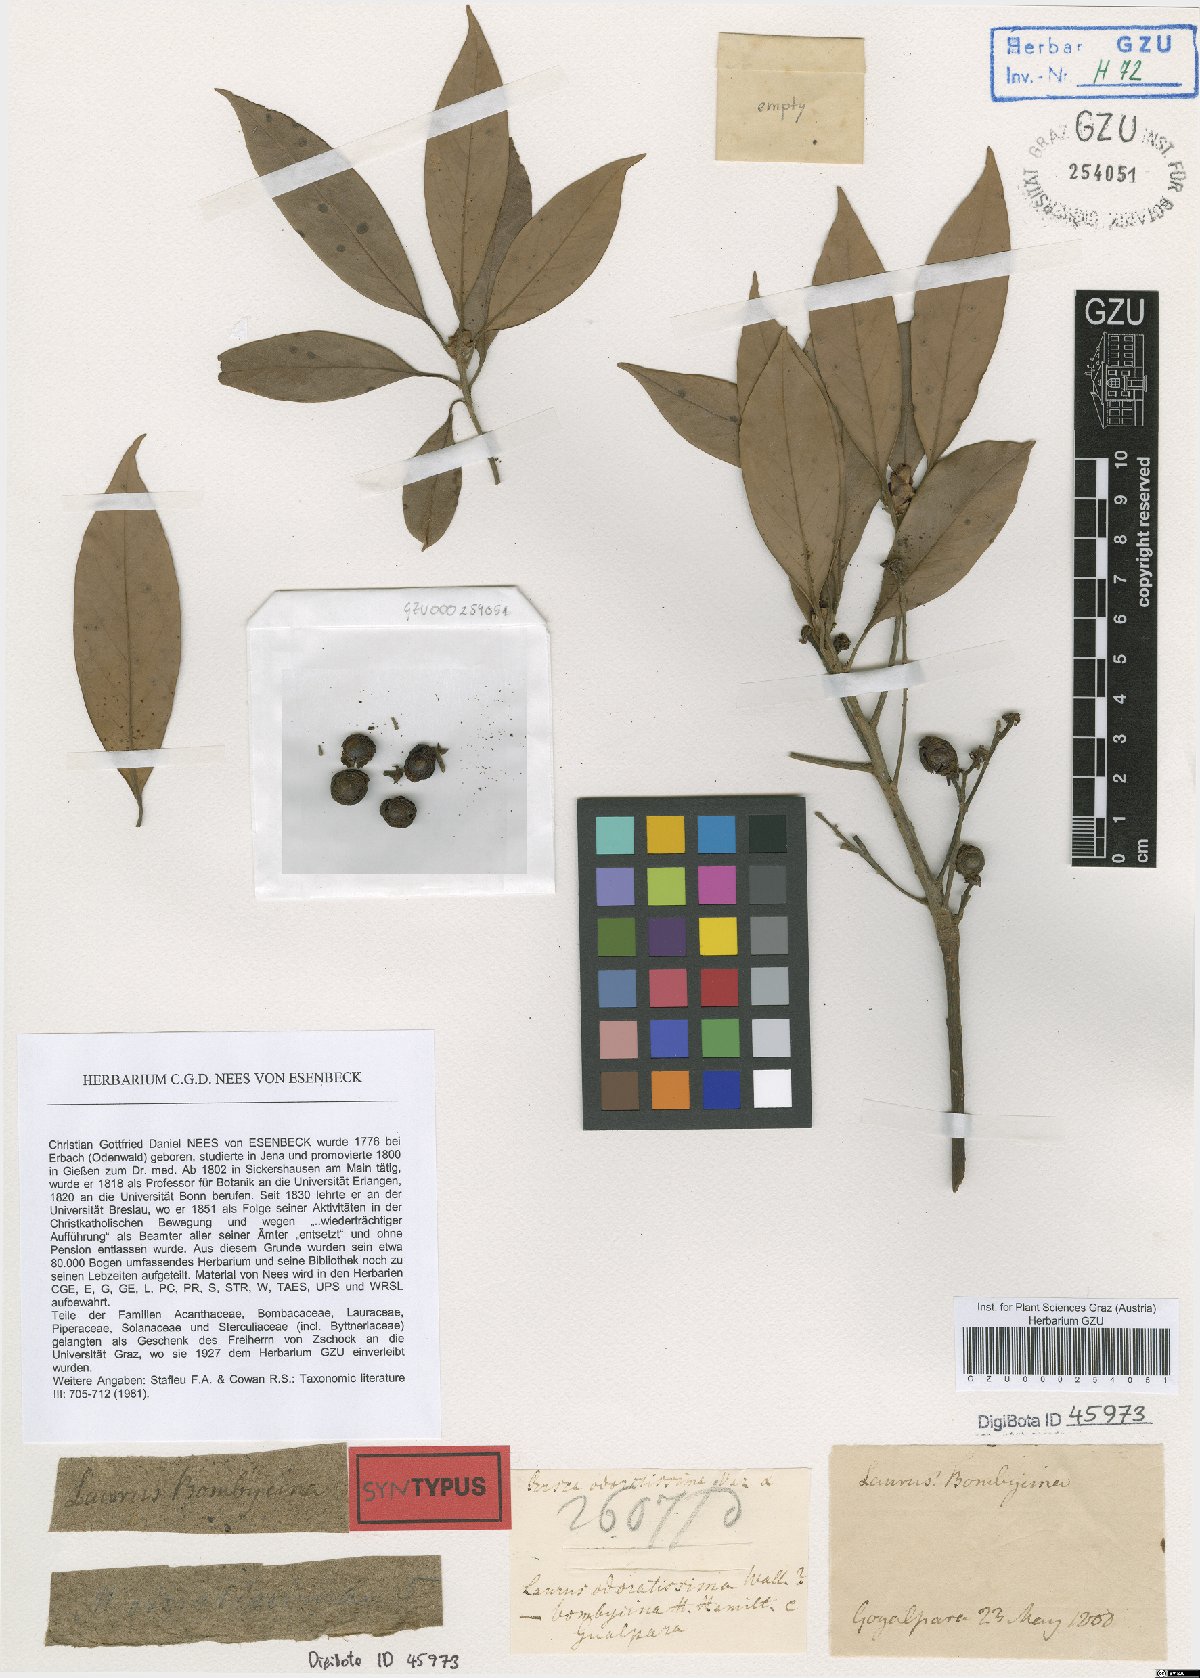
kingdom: Plantae
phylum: Tracheophyta
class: Magnoliopsida
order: Laurales
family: Lauraceae
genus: Machilus
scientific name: Machilus odoratissimus
